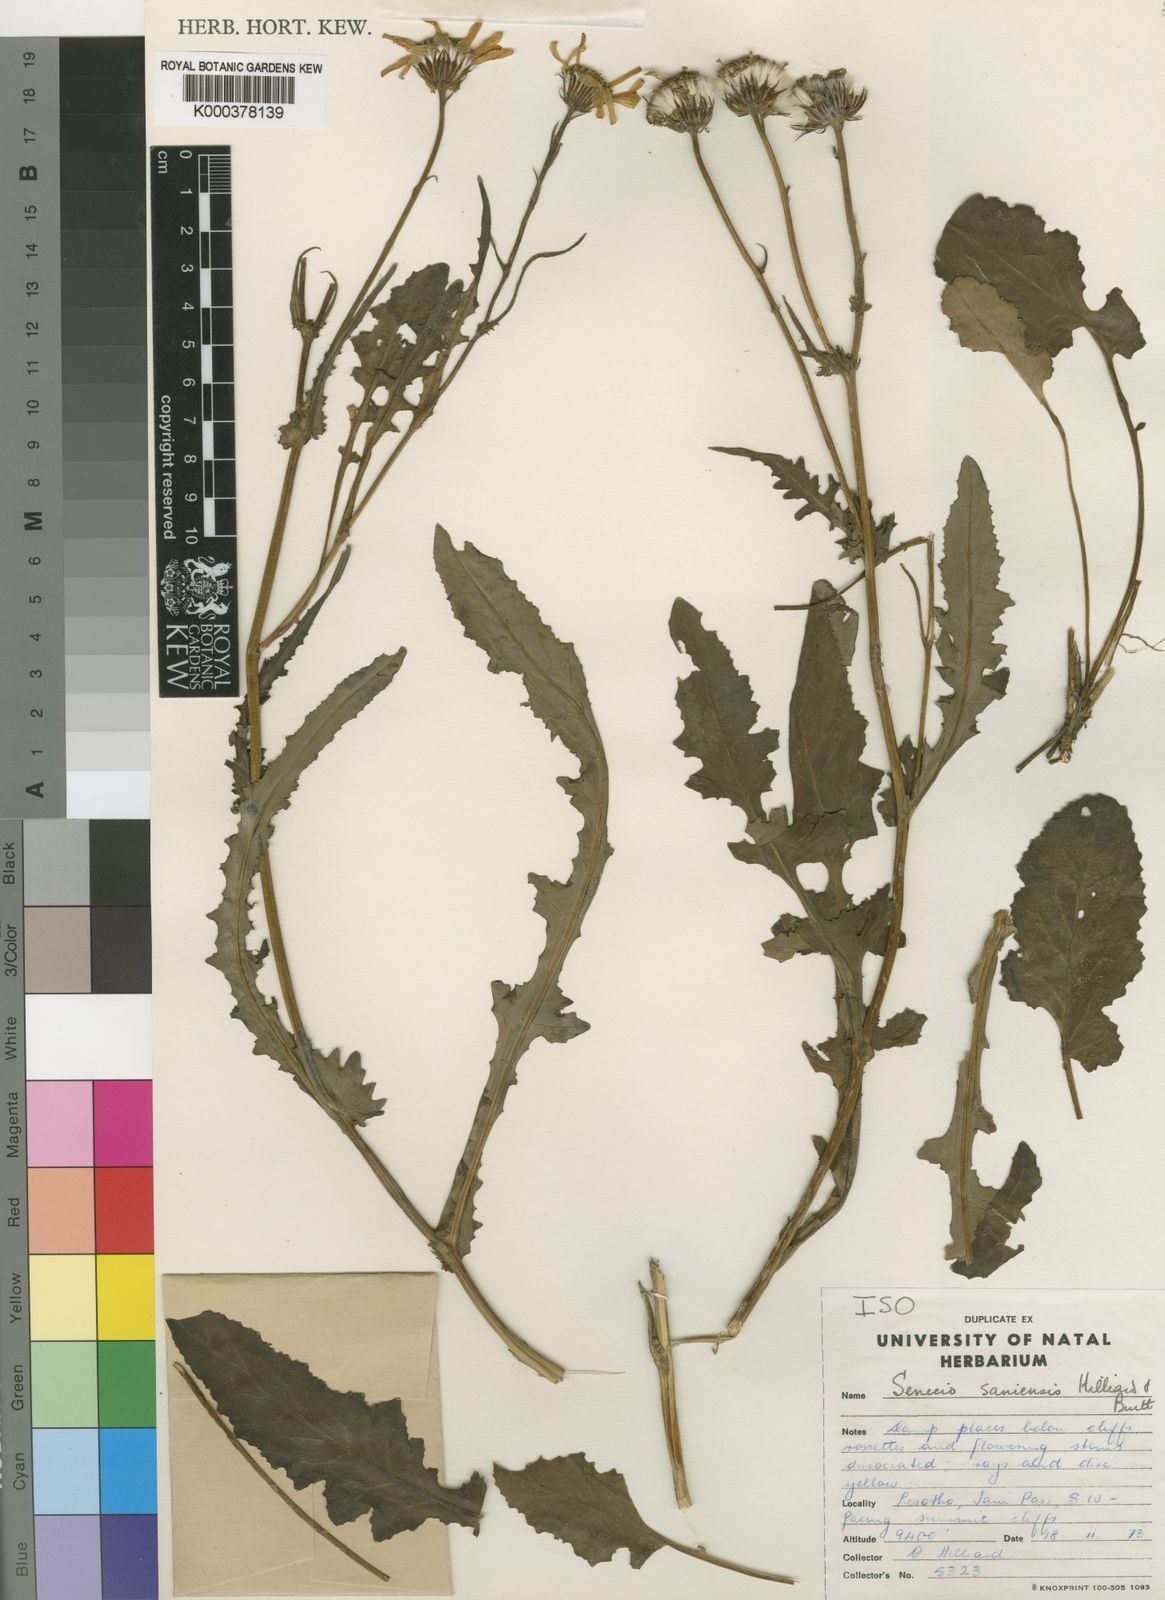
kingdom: Plantae
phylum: Tracheophyta
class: Magnoliopsida
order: Asterales
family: Asteraceae
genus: Senecio
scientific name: Senecio saniensis
